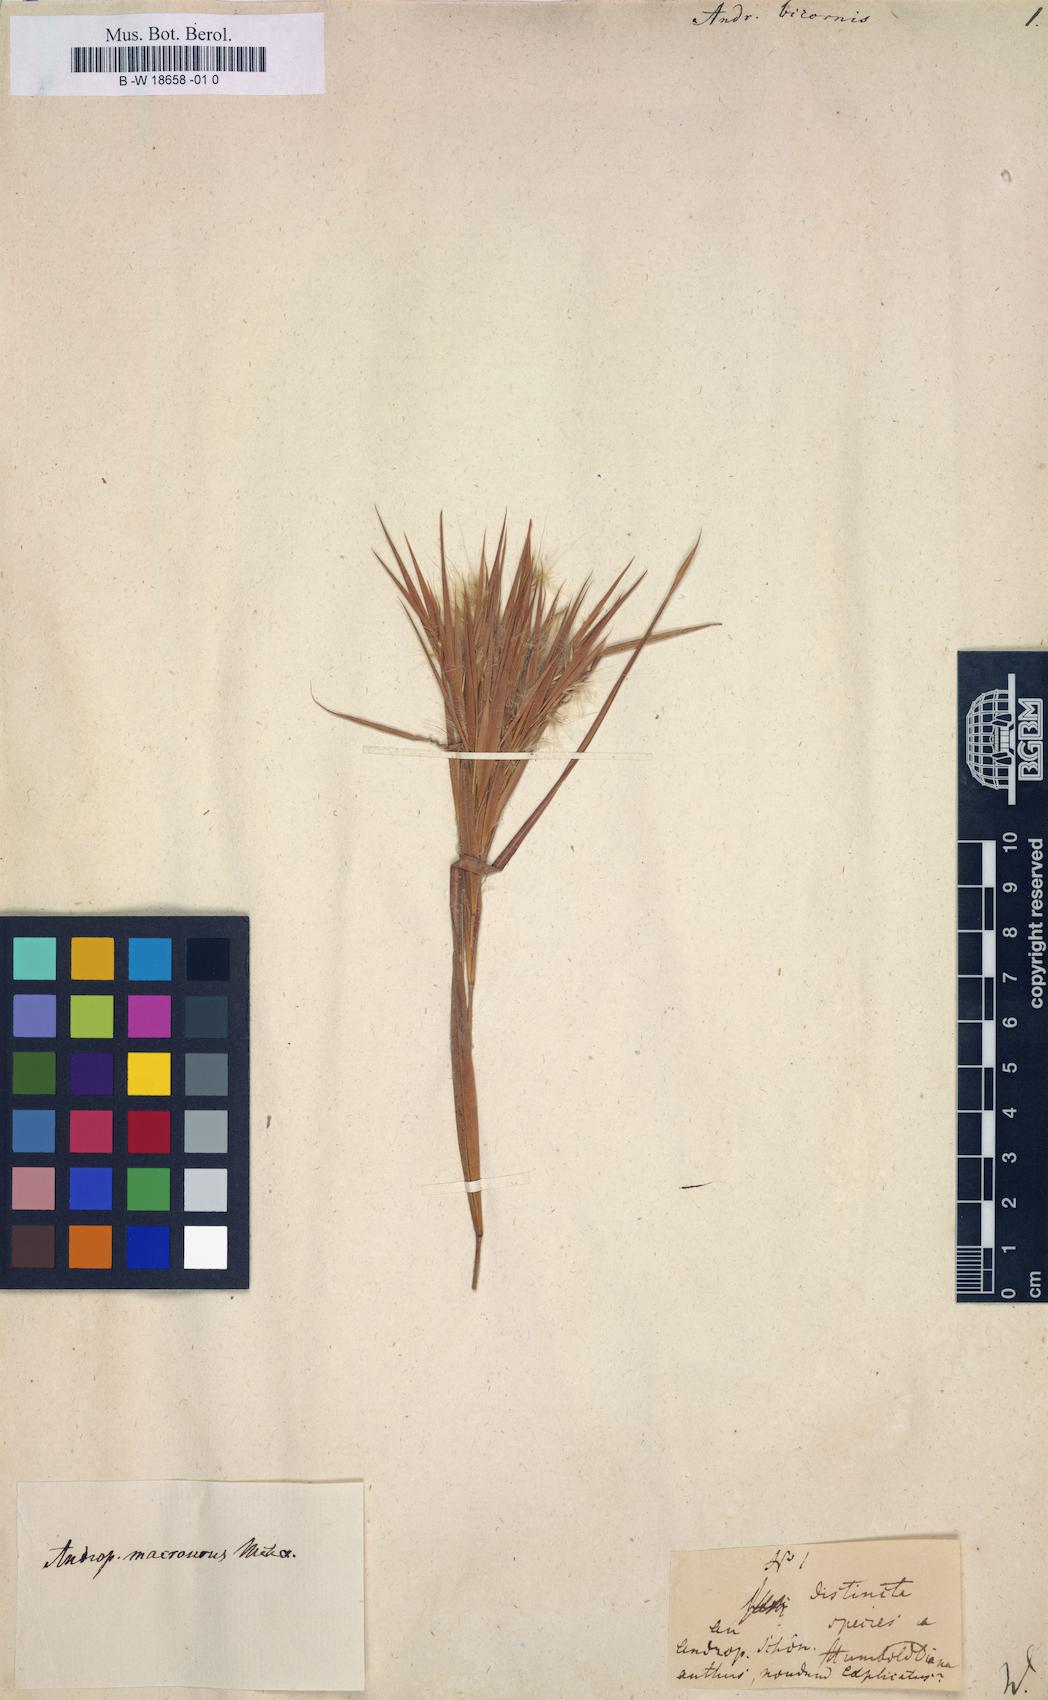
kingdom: Plantae
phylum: Tracheophyta
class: Liliopsida
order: Poales
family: Poaceae
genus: Andropogon
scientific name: Andropogon bicornis
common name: West indian foxtail grass
